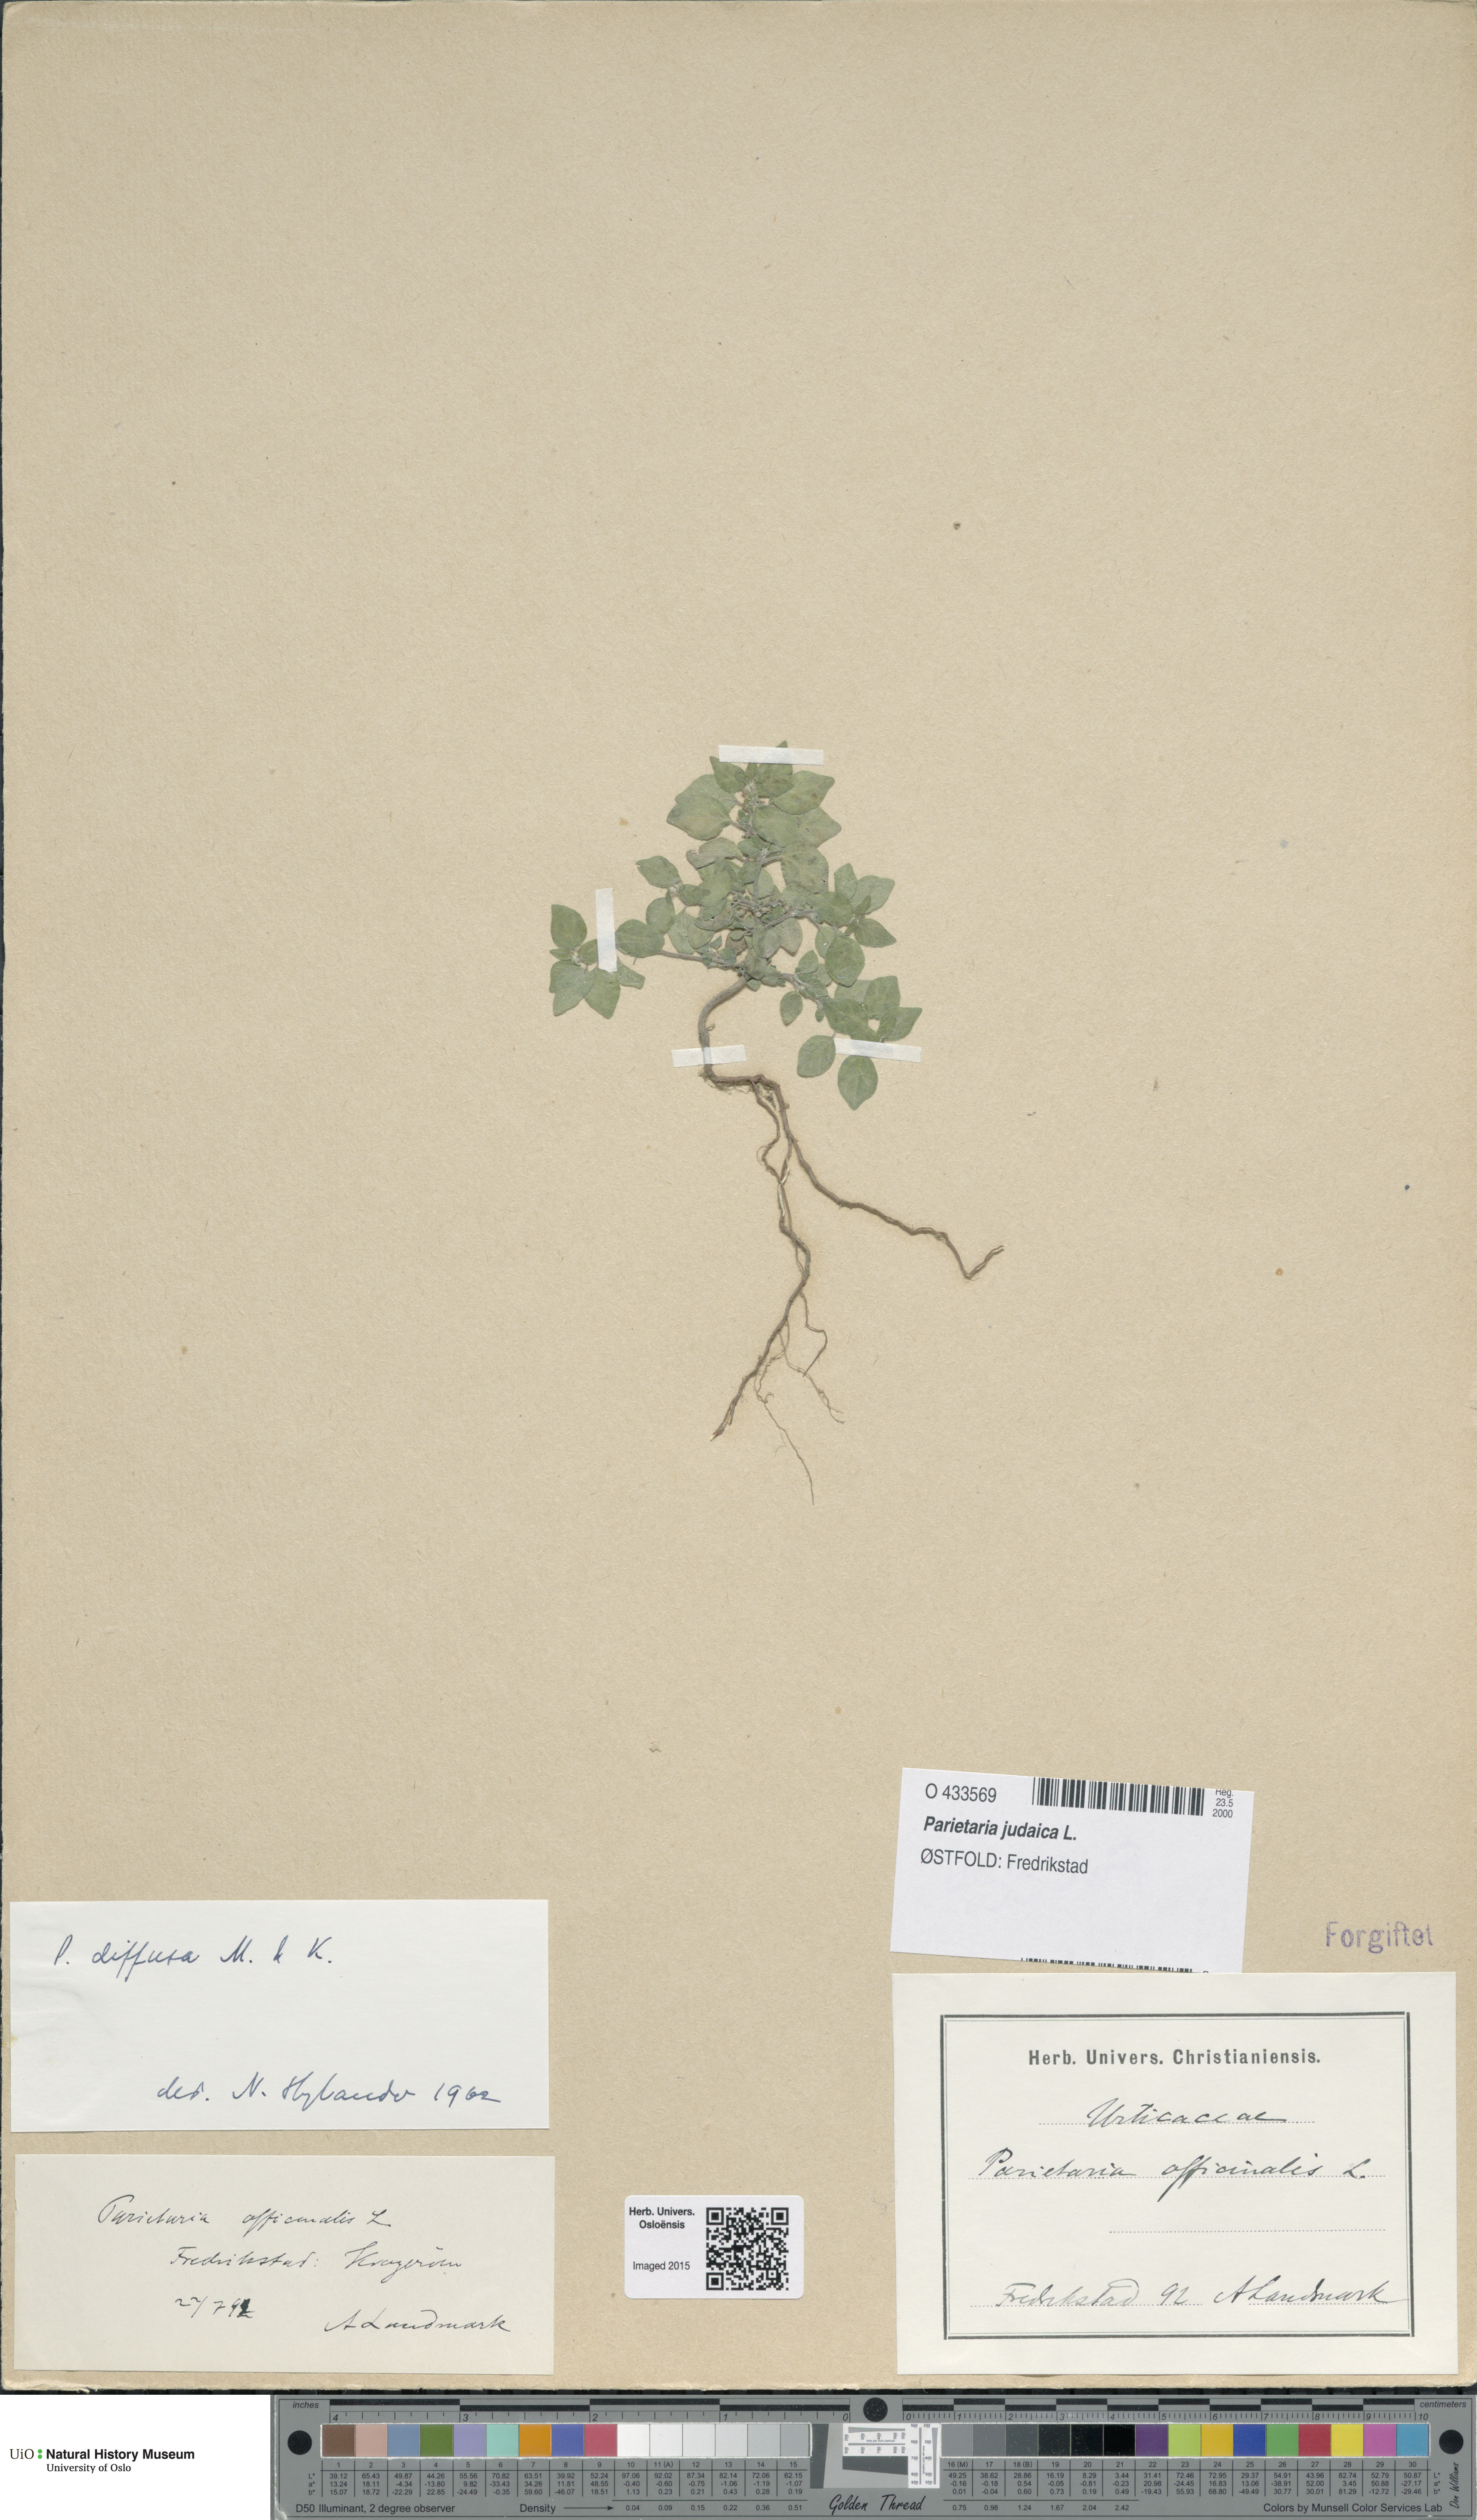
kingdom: Plantae
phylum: Tracheophyta
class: Magnoliopsida
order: Rosales
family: Urticaceae
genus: Parietaria
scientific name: Parietaria judaica
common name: Pellitory-of-the-wall
